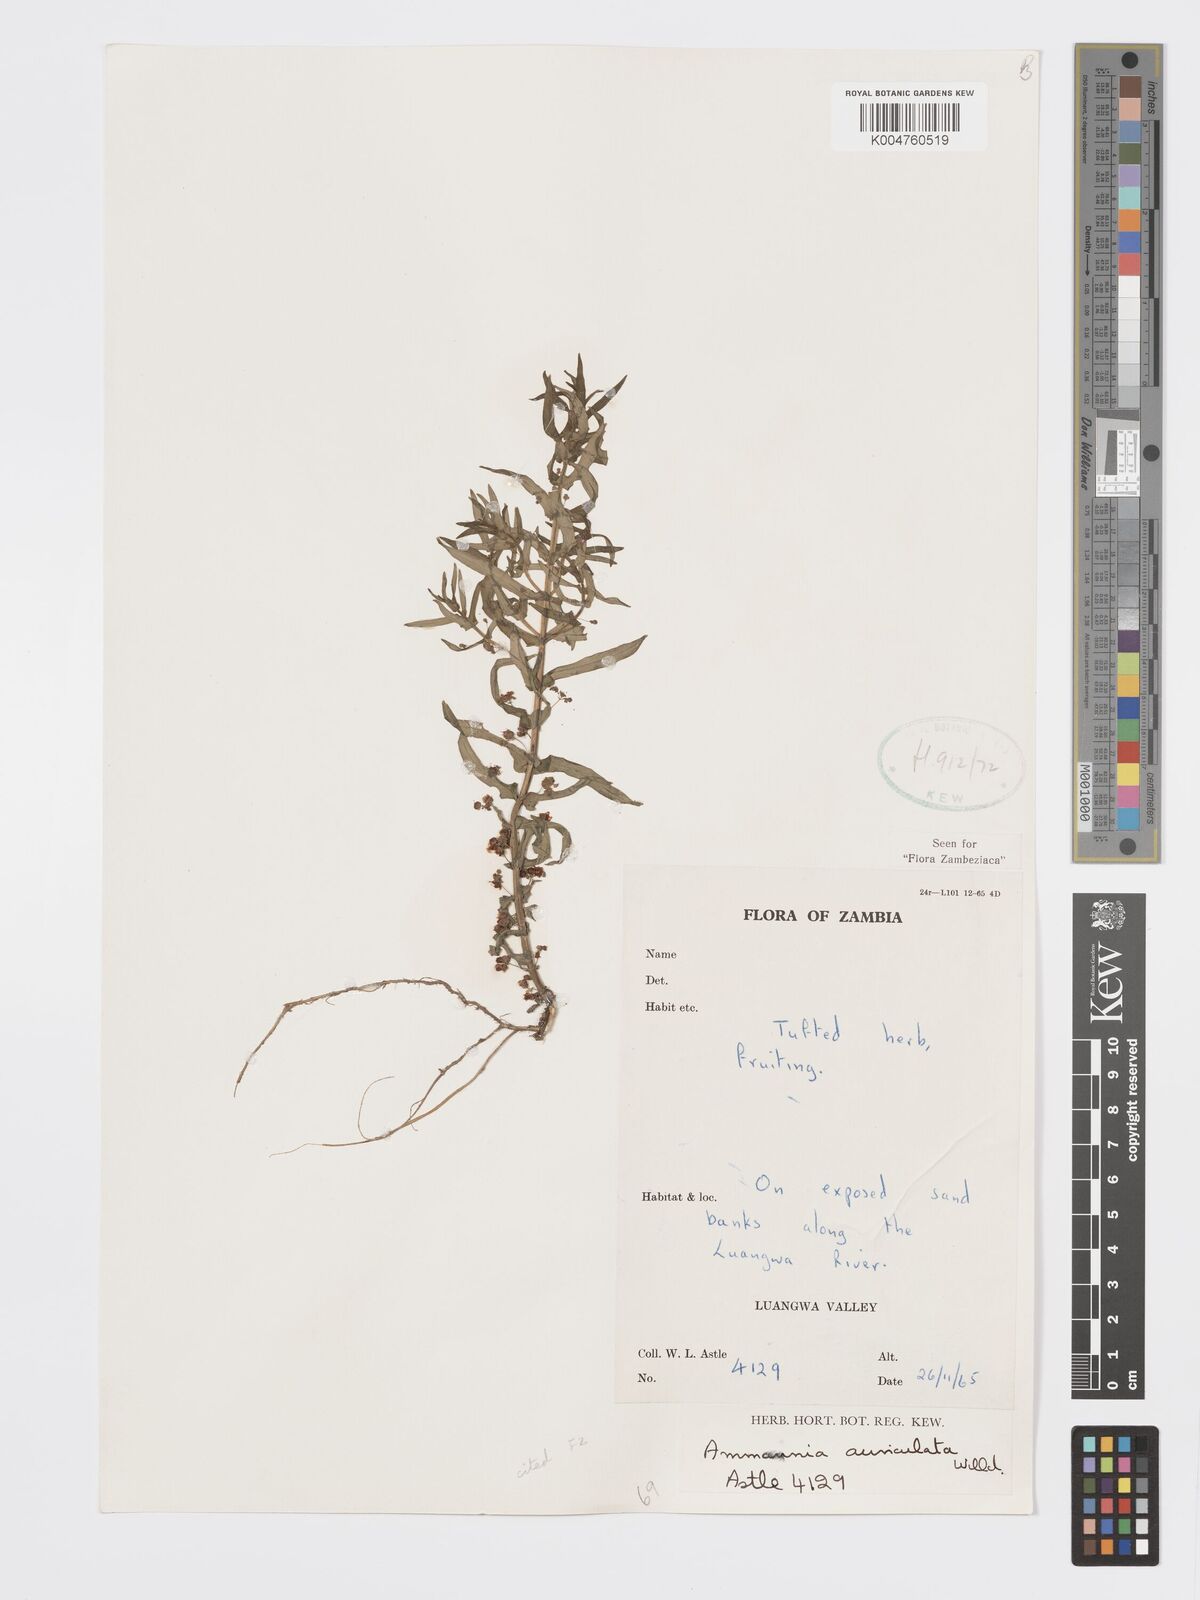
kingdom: Plantae
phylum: Tracheophyta
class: Magnoliopsida
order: Myrtales
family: Lythraceae
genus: Ammannia
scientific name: Ammannia auriculata
